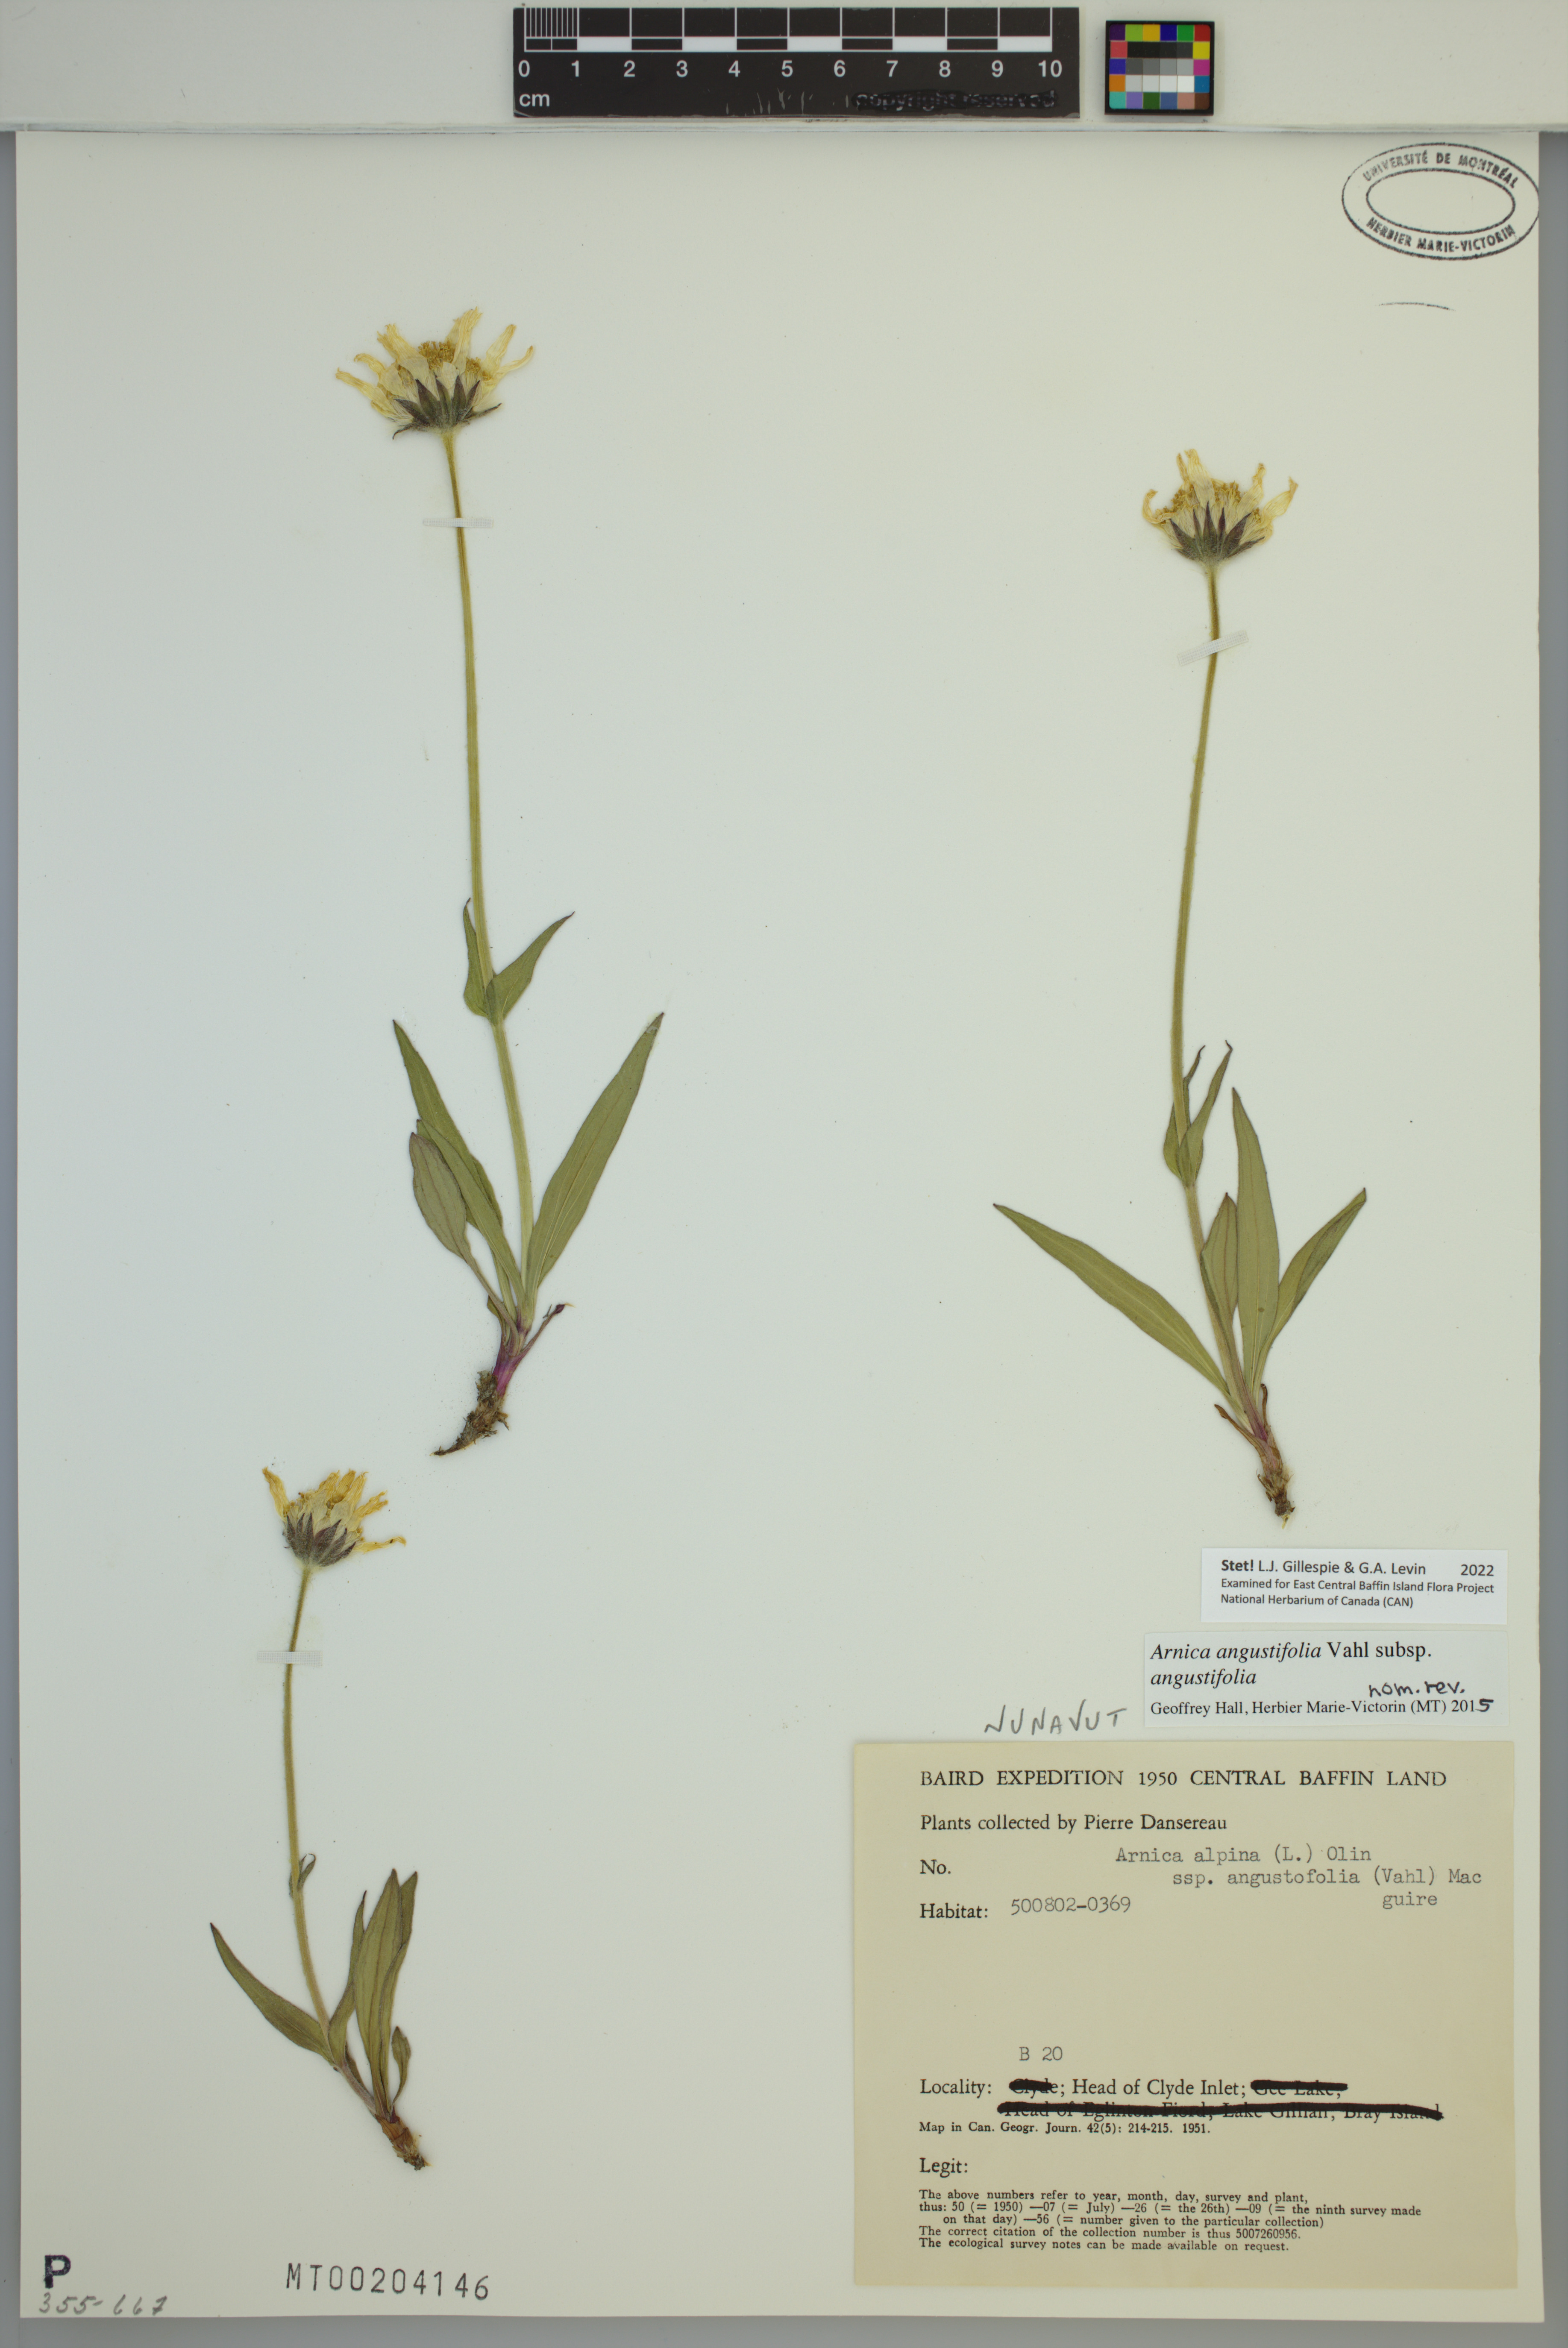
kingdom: Plantae
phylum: Tracheophyta
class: Magnoliopsida
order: Asterales
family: Asteraceae
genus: Arnica
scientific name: Arnica angustifolia
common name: Arctic arnica
